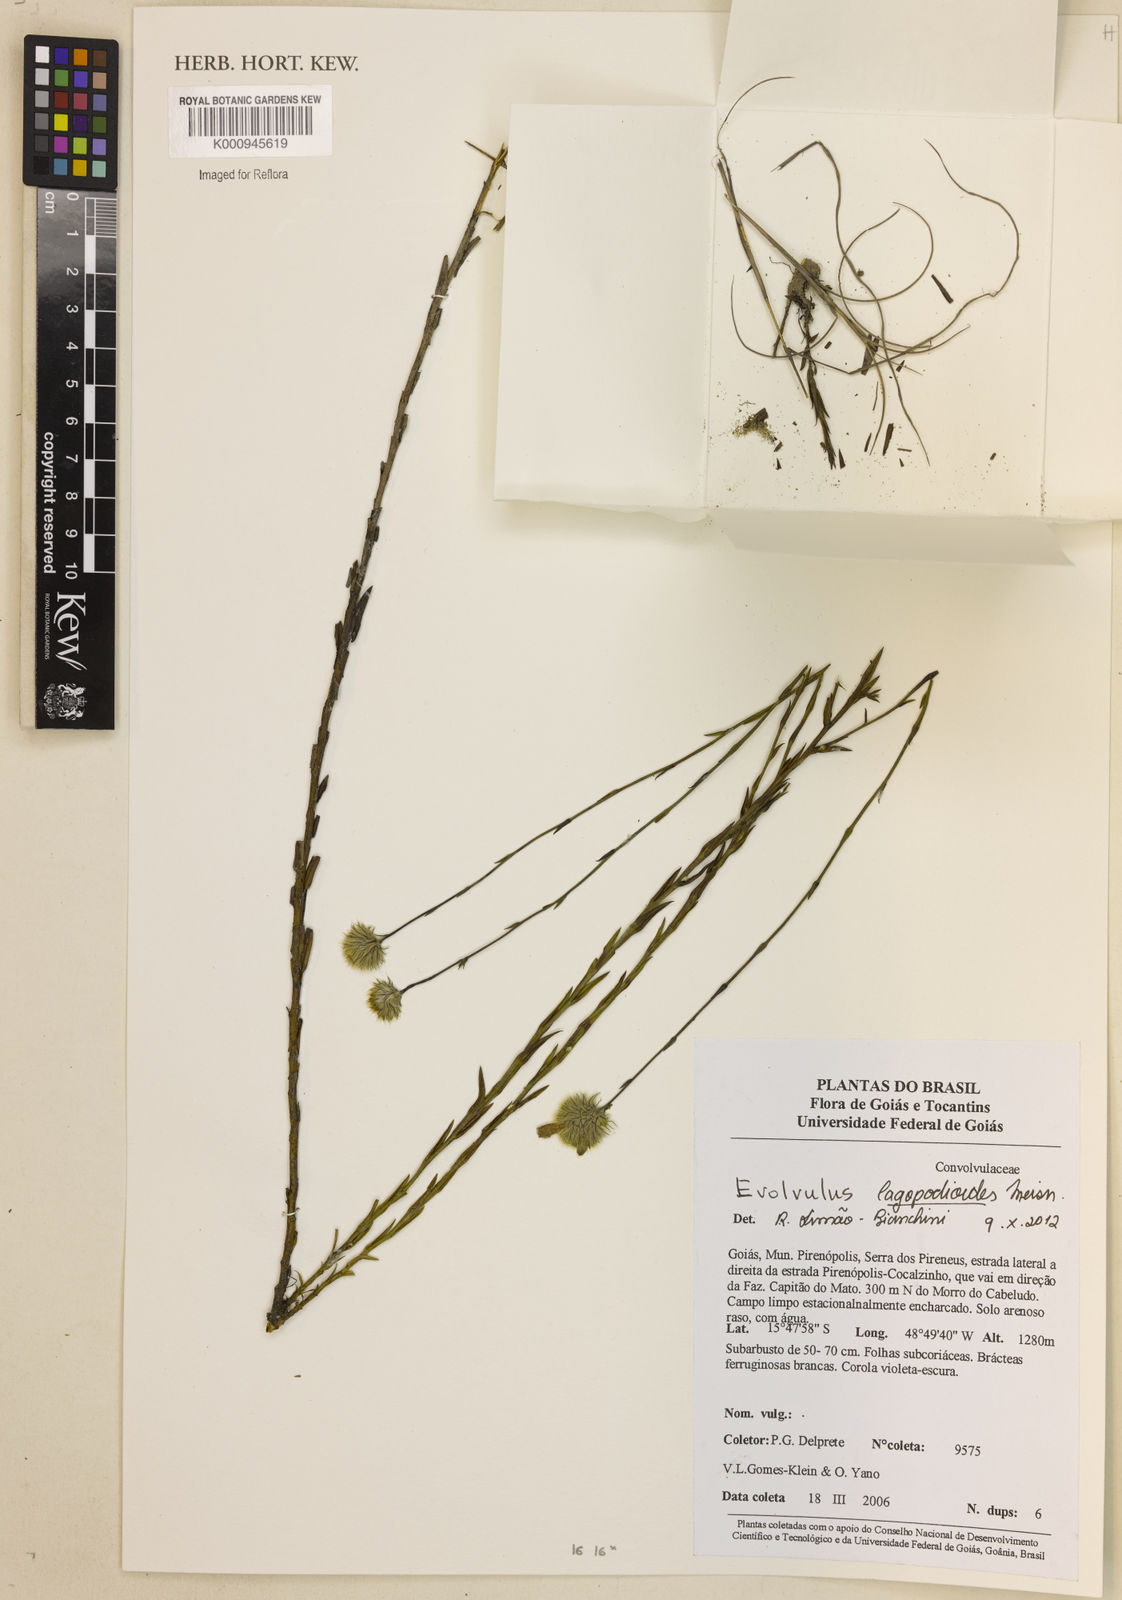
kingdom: Plantae
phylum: Tracheophyta
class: Magnoliopsida
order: Solanales
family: Convolvulaceae
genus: Evolvulus
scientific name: Evolvulus lagopodioides
